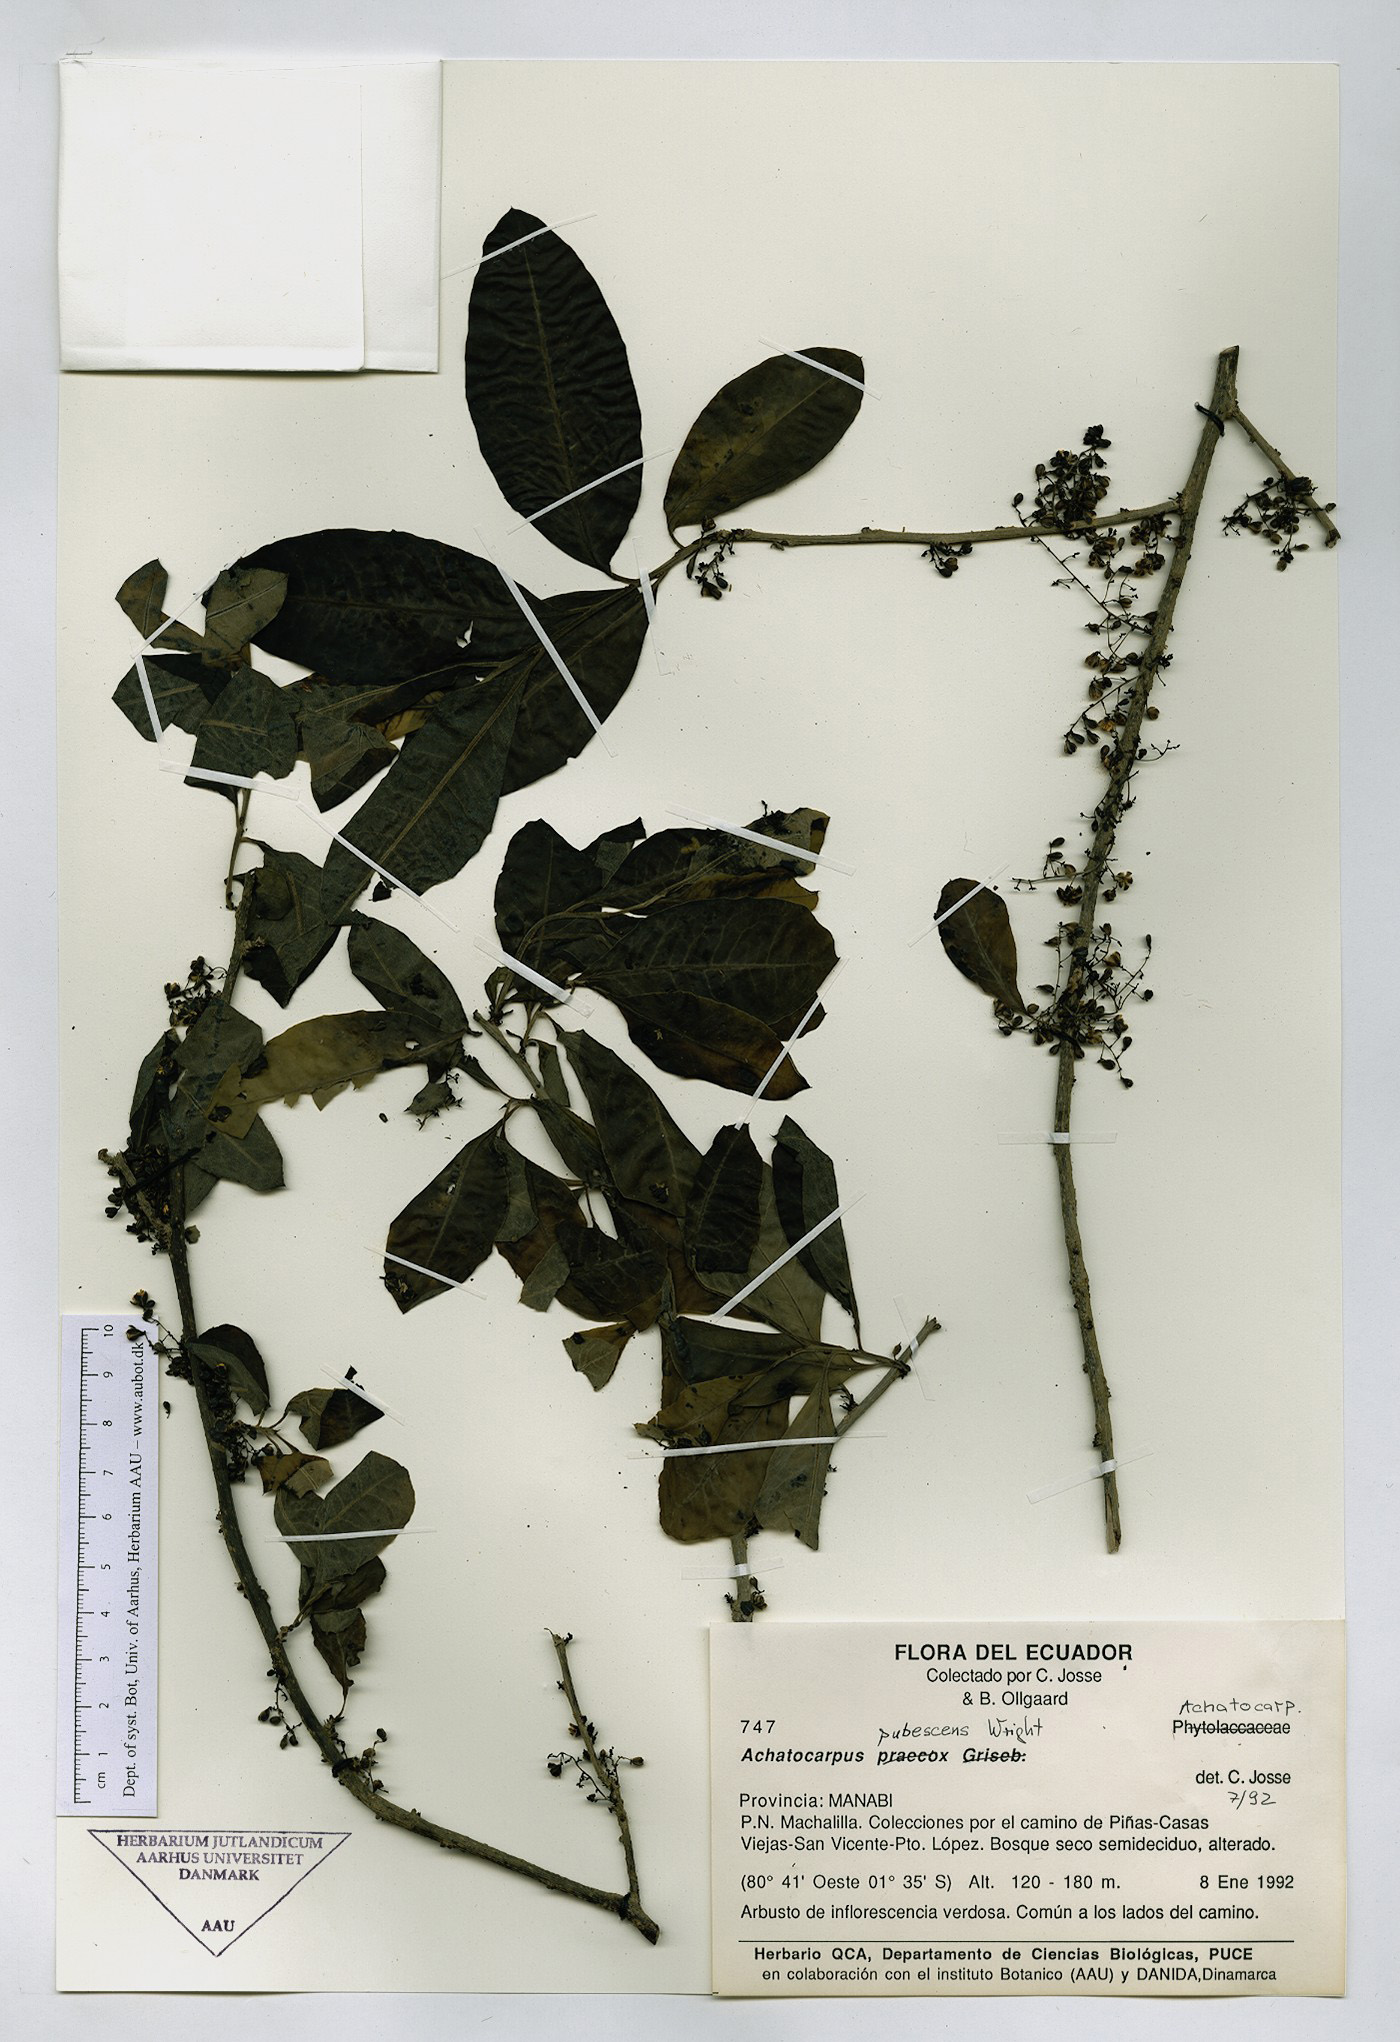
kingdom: Plantae
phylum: Tracheophyta
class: Magnoliopsida
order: Caryophyllales
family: Achatocarpaceae
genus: Achatocarpus
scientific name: Achatocarpus pubescens
